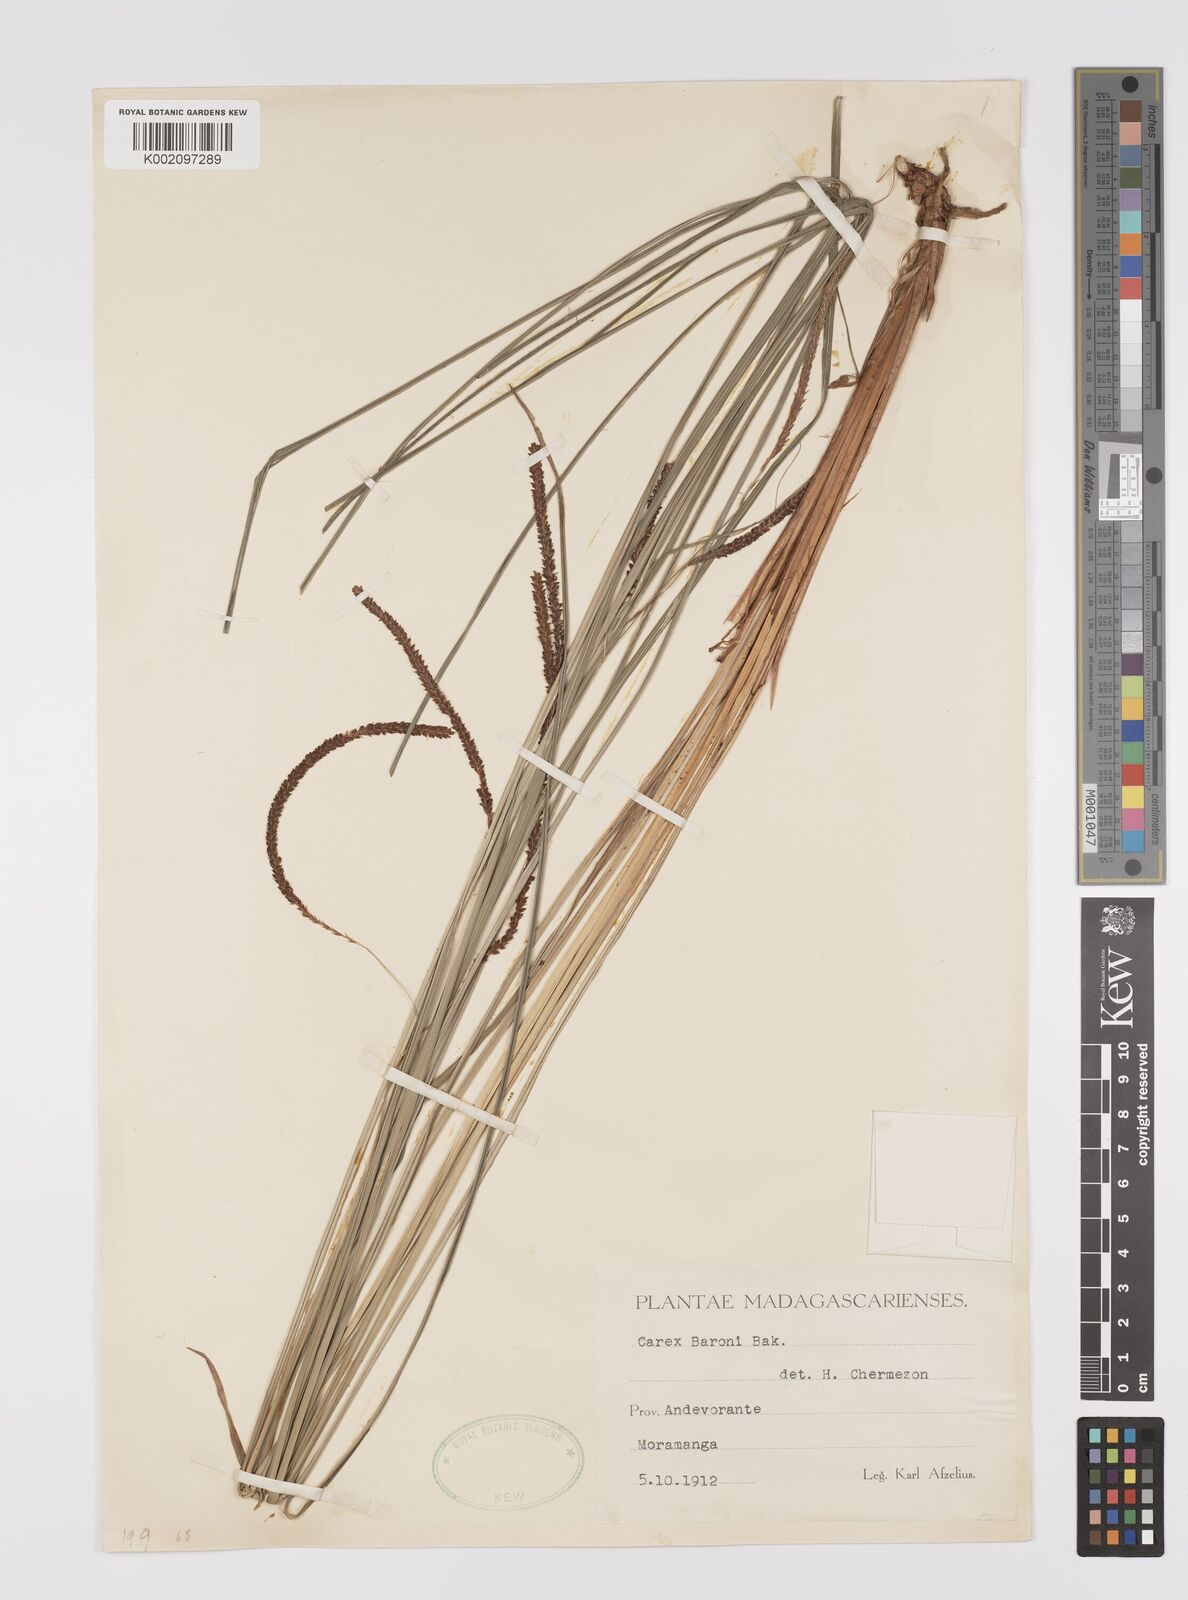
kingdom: Plantae
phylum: Tracheophyta
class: Liliopsida
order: Poales
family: Cyperaceae
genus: Carex
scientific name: Carex baronii
